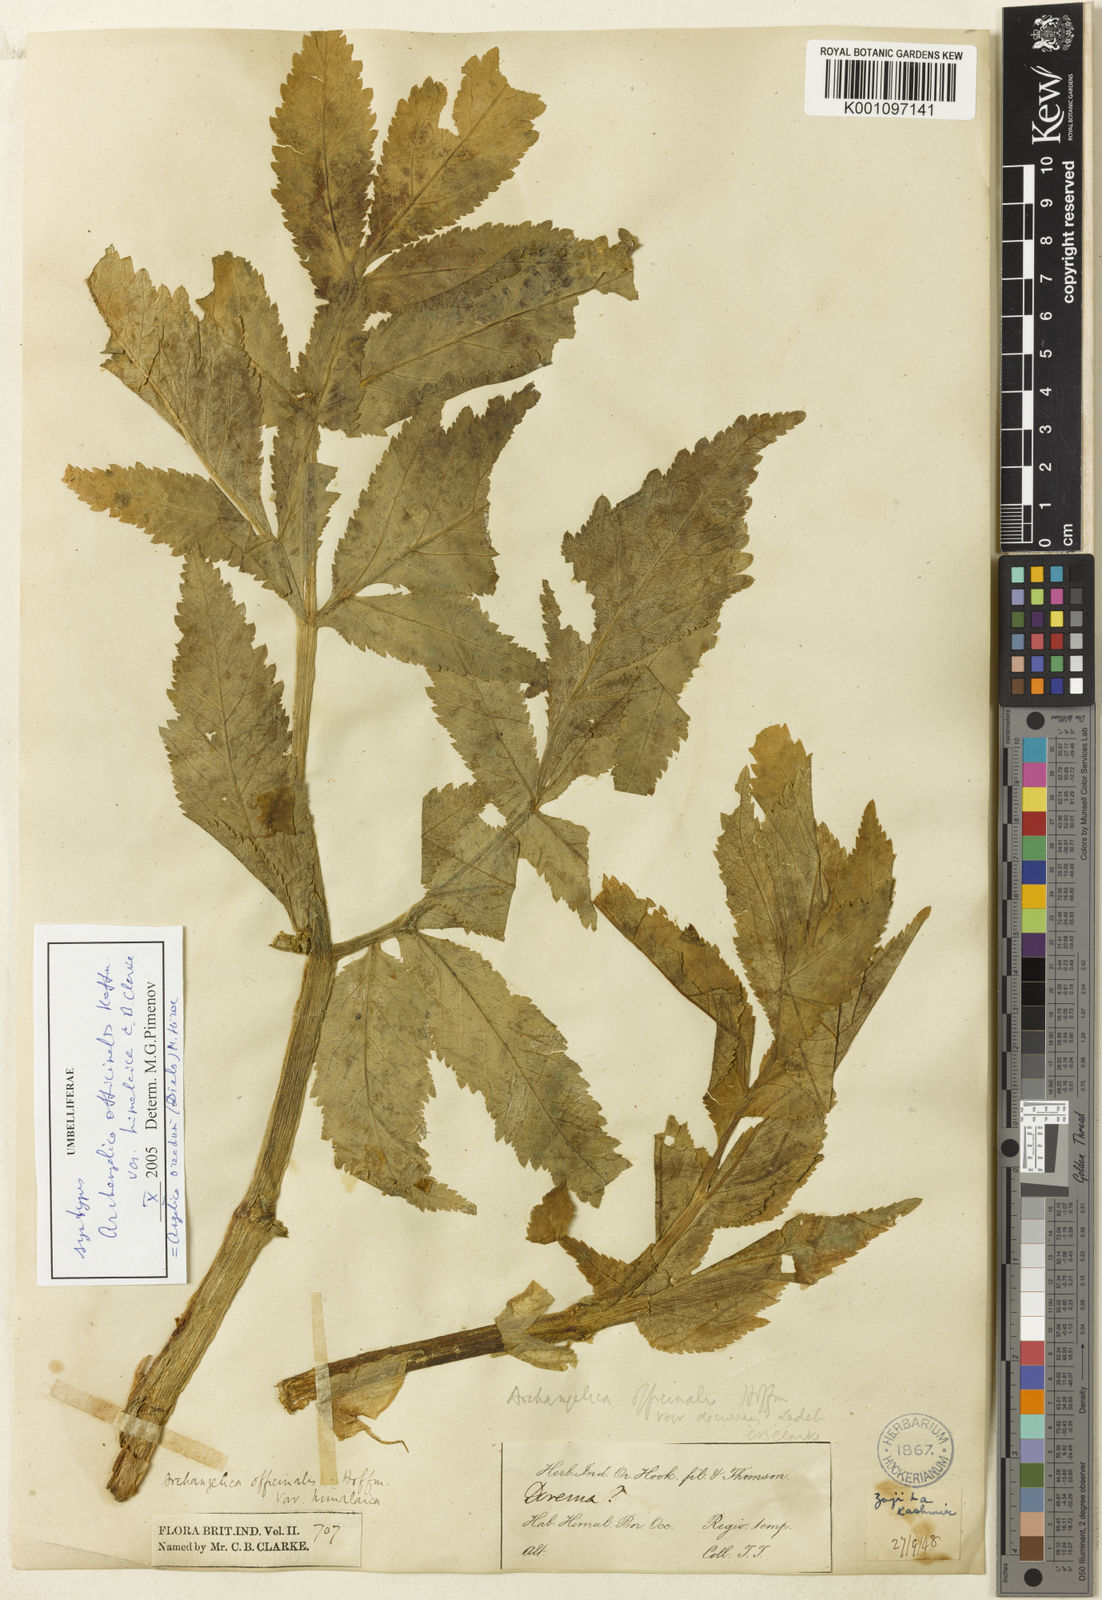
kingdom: Plantae
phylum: Tracheophyta
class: Magnoliopsida
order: Apiales
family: Apiaceae
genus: Angelica
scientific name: Angelica oreada
